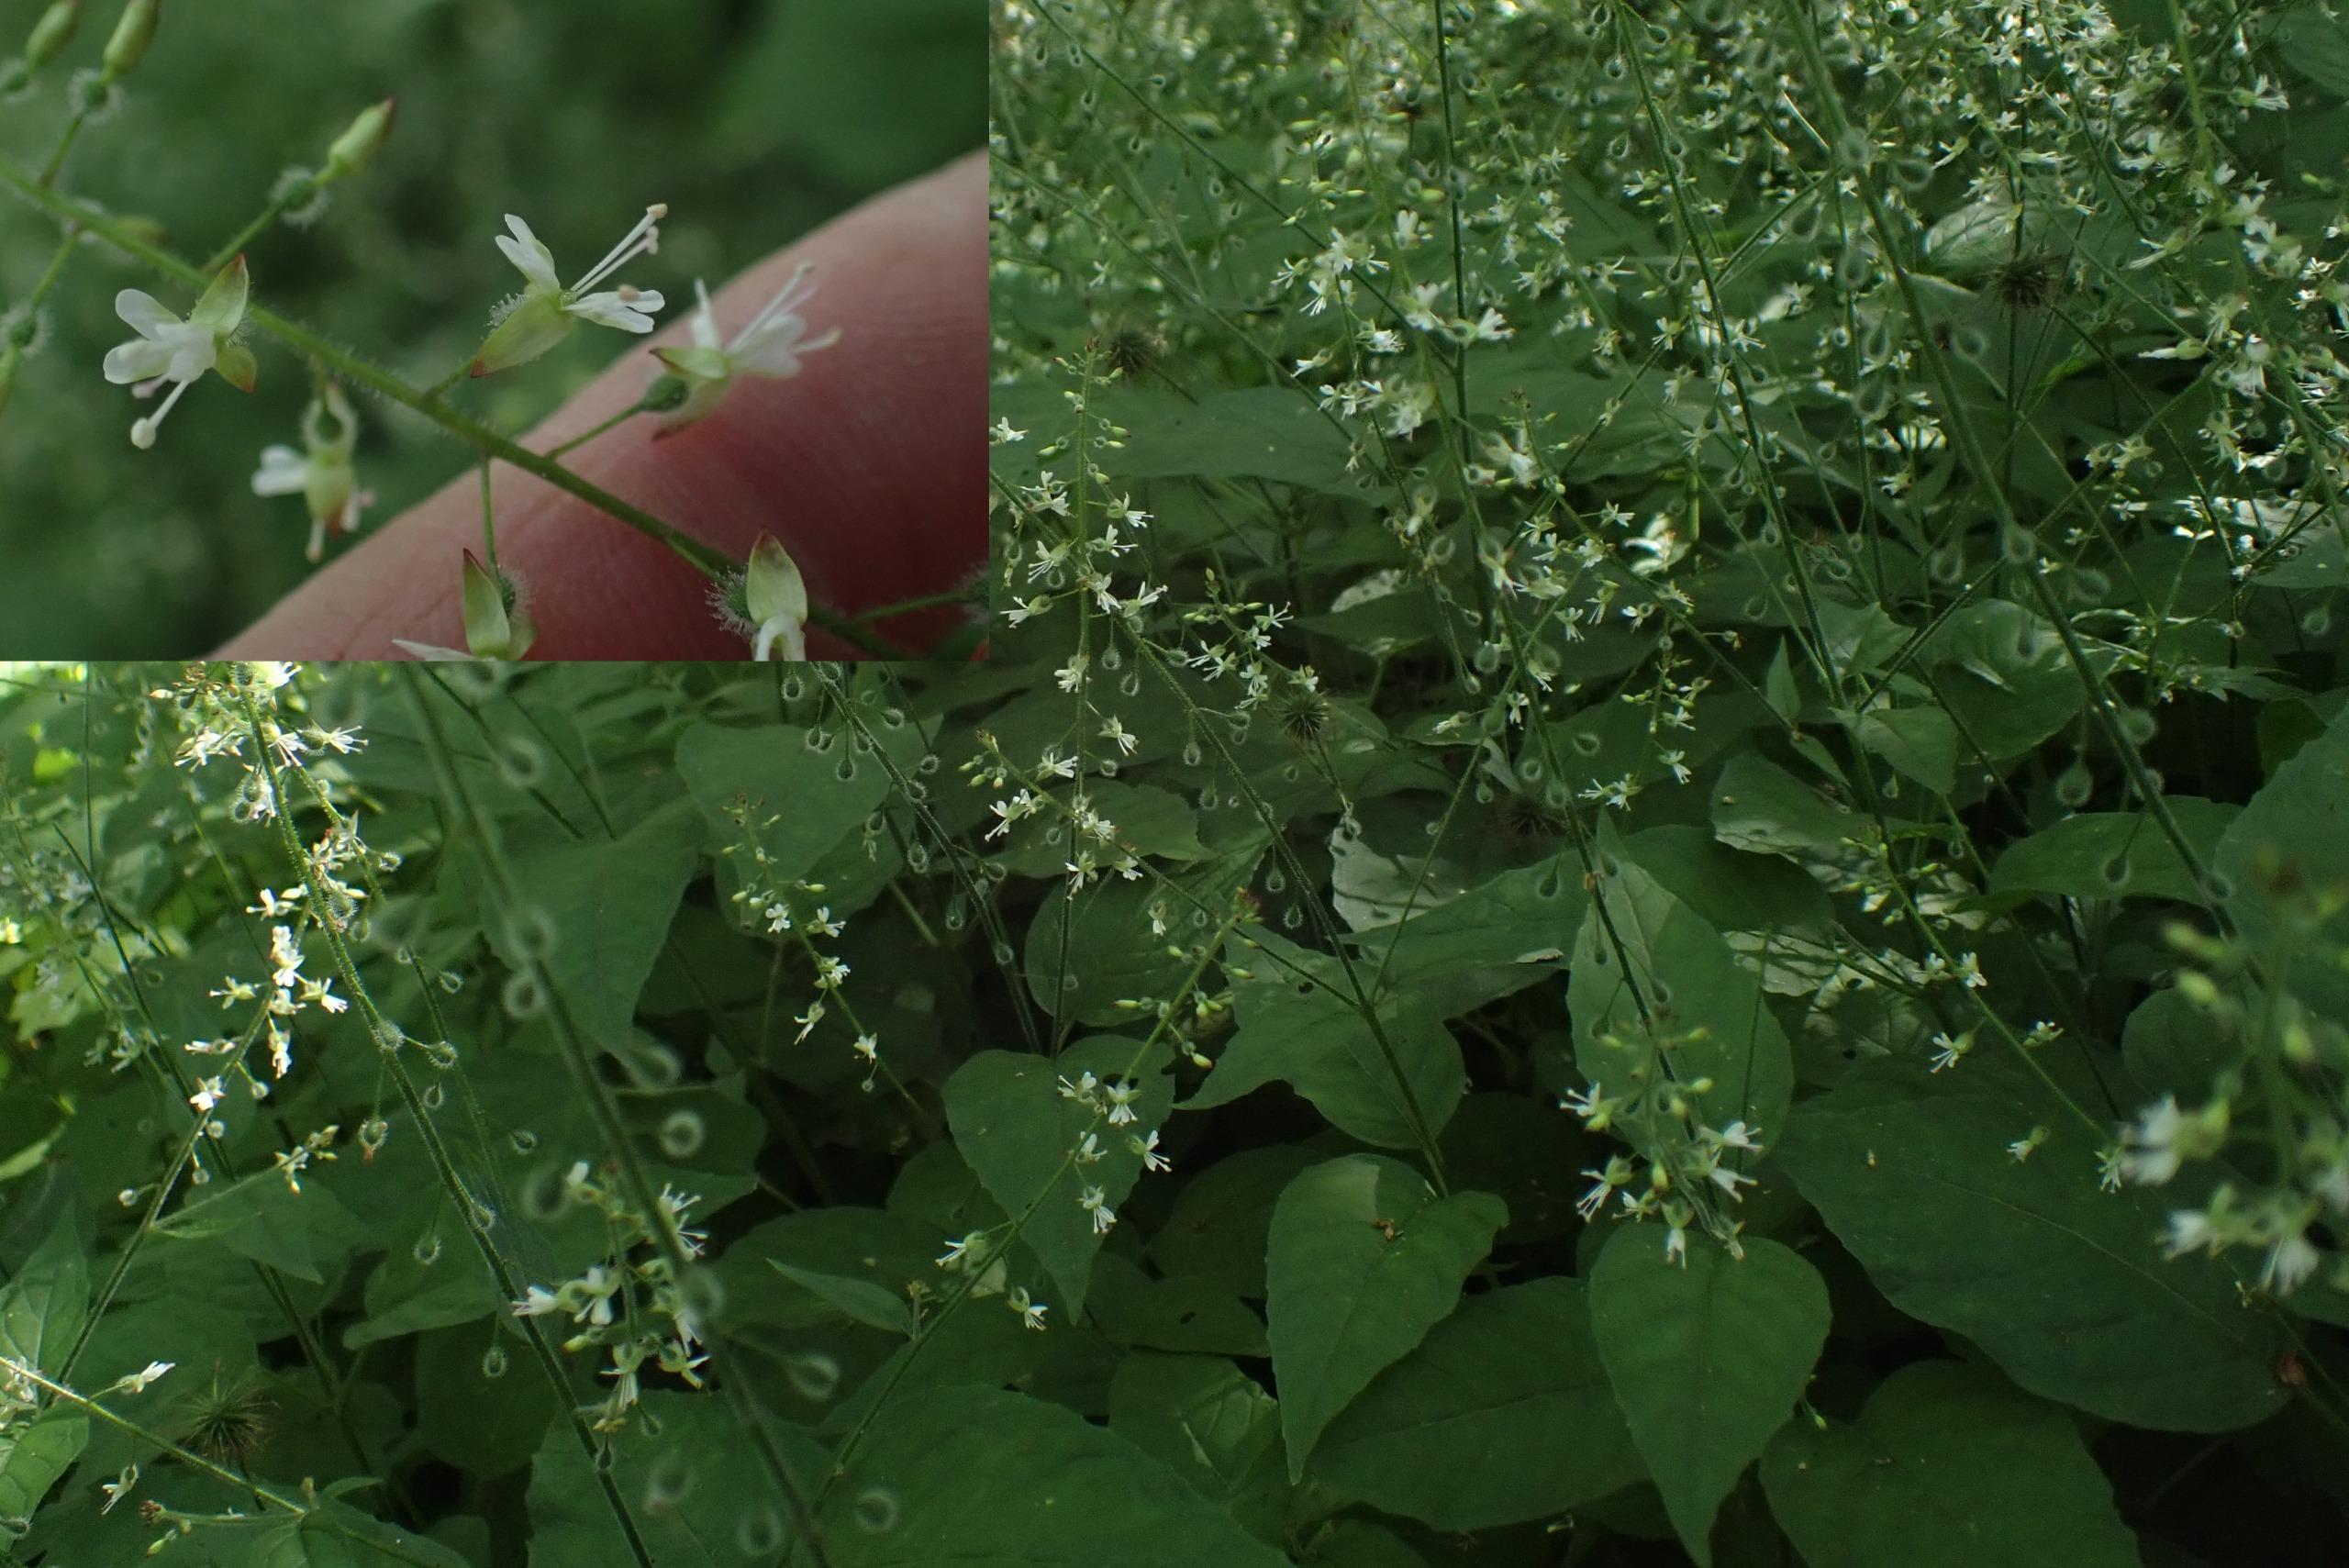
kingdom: Plantae
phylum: Tracheophyta
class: Magnoliopsida
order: Myrtales
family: Onagraceae
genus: Circaea
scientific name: Circaea lutetiana
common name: Dunet steffensurt
